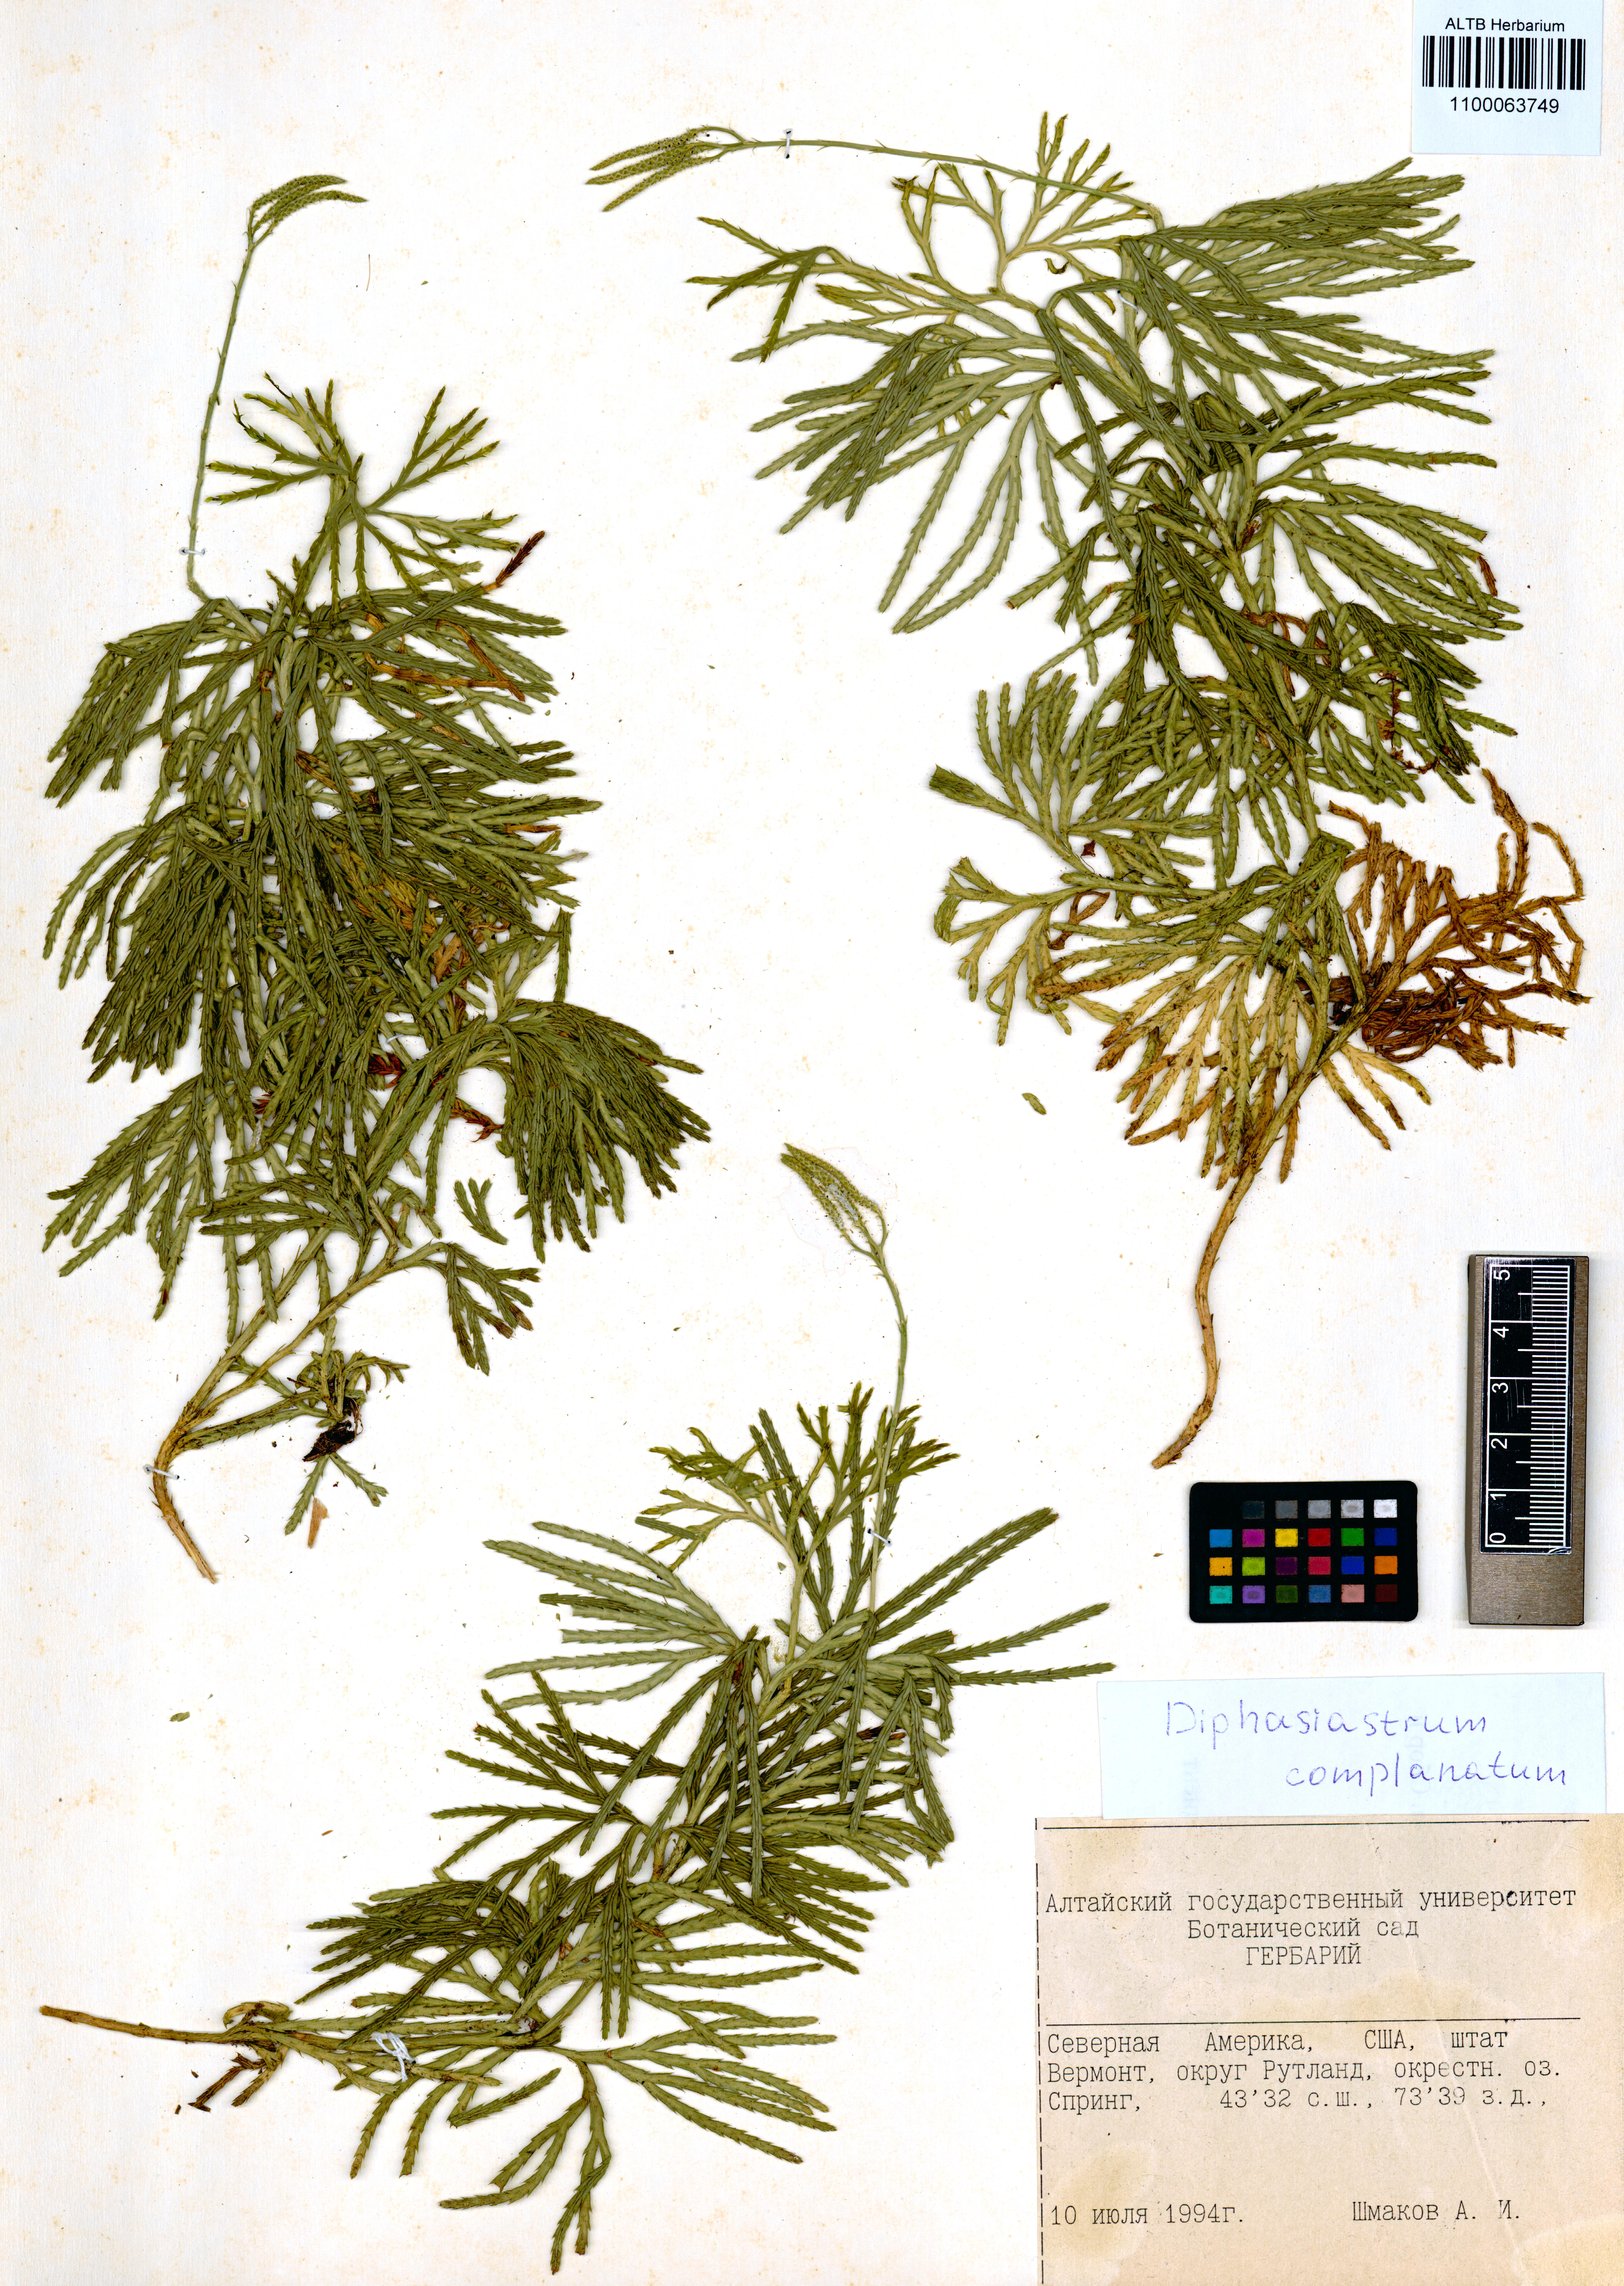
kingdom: Plantae
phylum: Tracheophyta
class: Lycopodiopsida
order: Lycopodiales
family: Lycopodiaceae
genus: Diphasiastrum
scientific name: Diphasiastrum complanatum
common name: Northern running-pine
